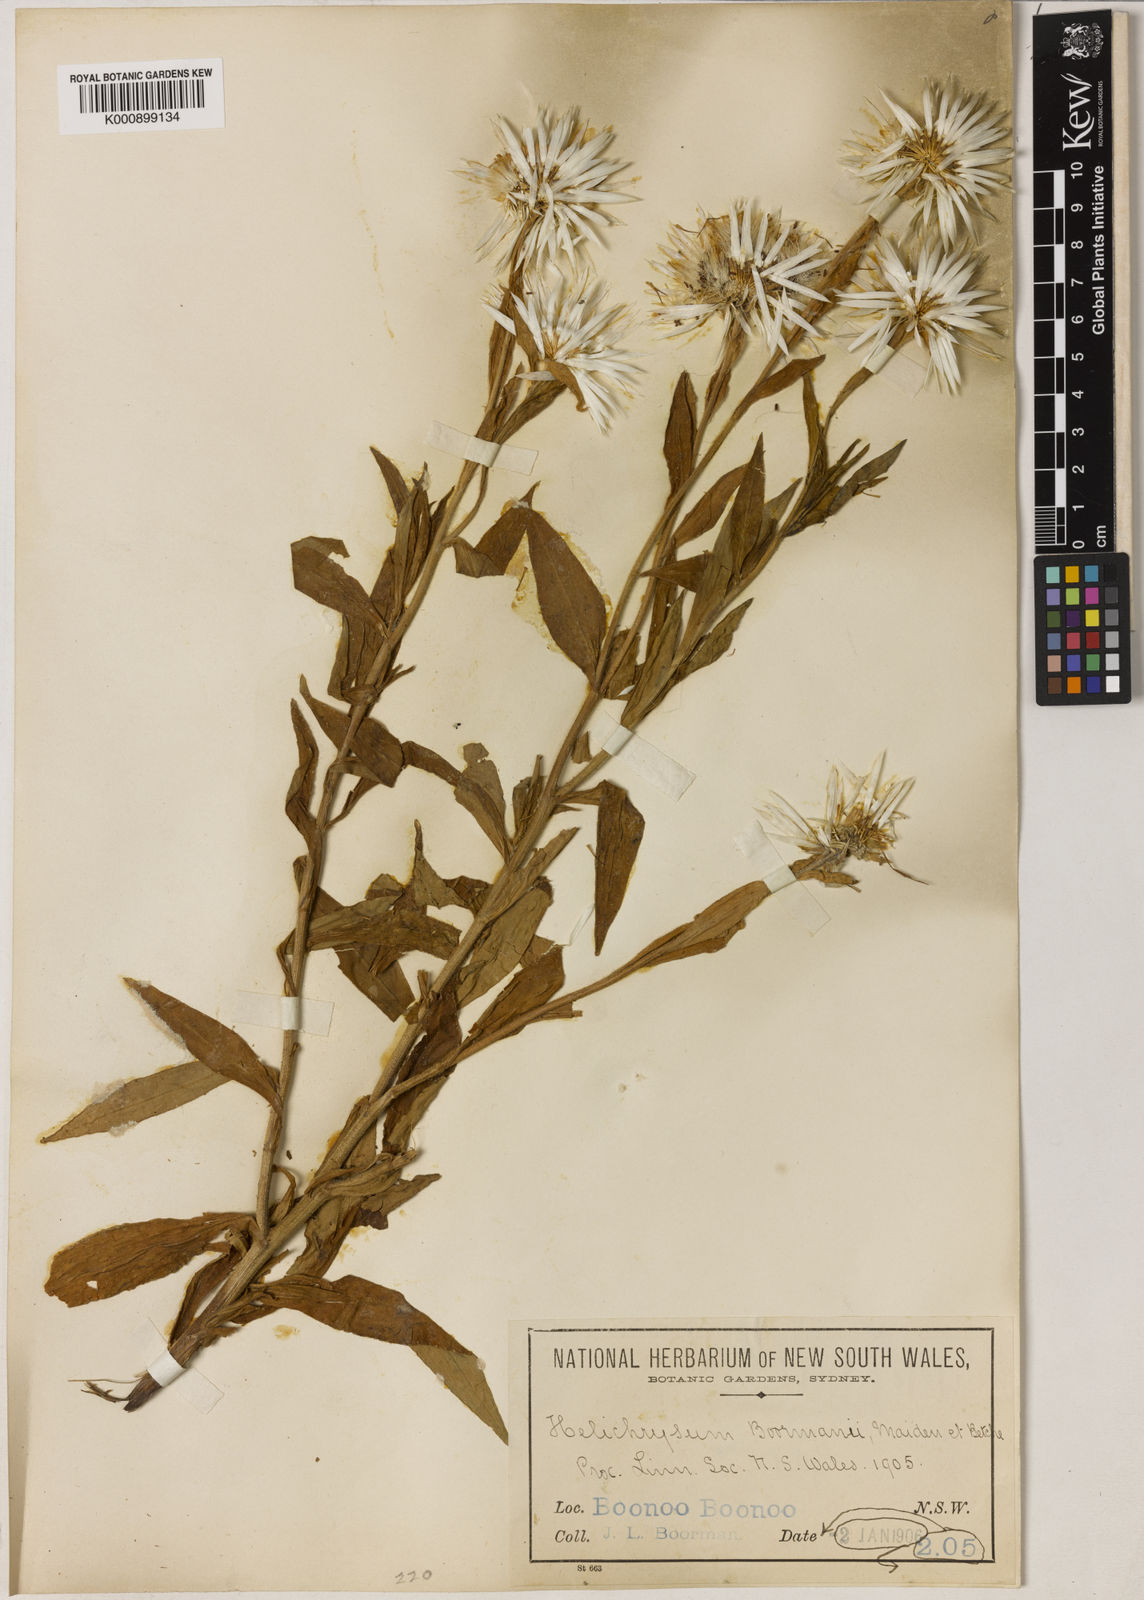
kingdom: Plantae
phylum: Tracheophyta
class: Magnoliopsida
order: Asterales
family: Asteraceae
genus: Leucozoma
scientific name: Leucozoma boormanii
